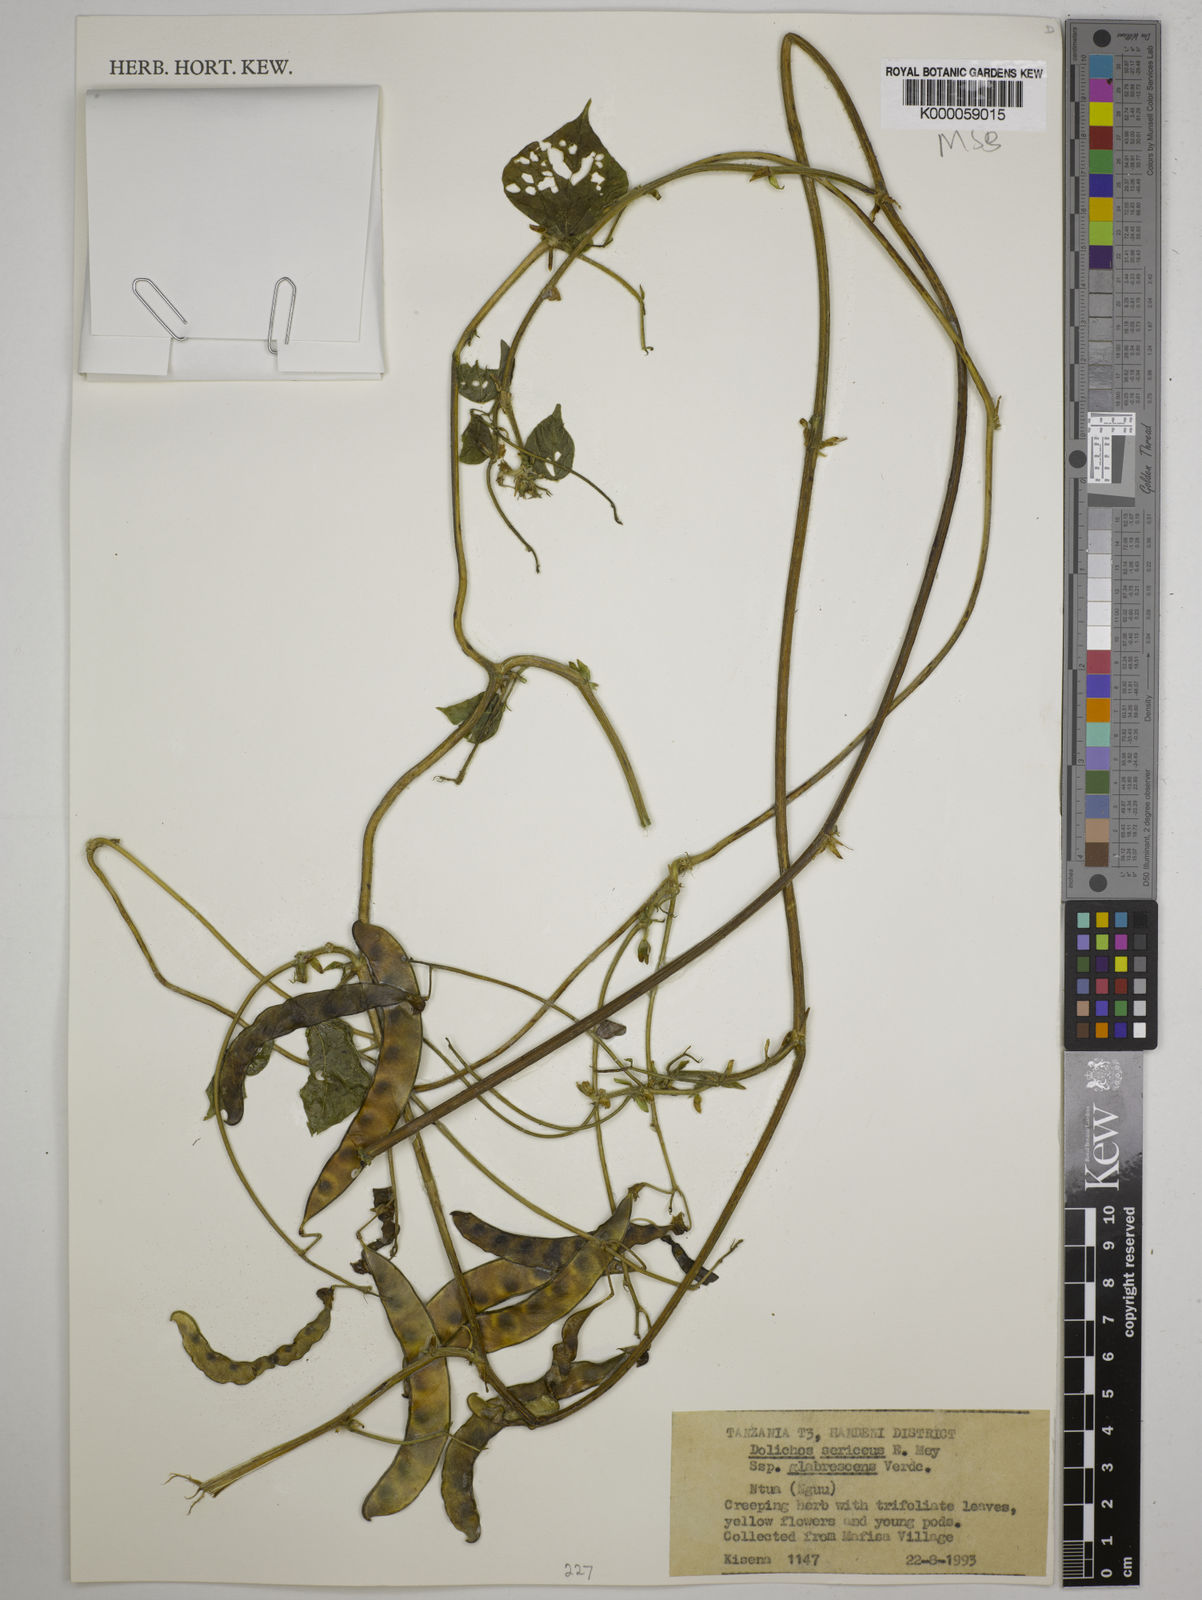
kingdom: Plantae
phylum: Tracheophyta
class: Magnoliopsida
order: Fabales
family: Fabaceae
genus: Dolichos
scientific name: Dolichos sericeus
